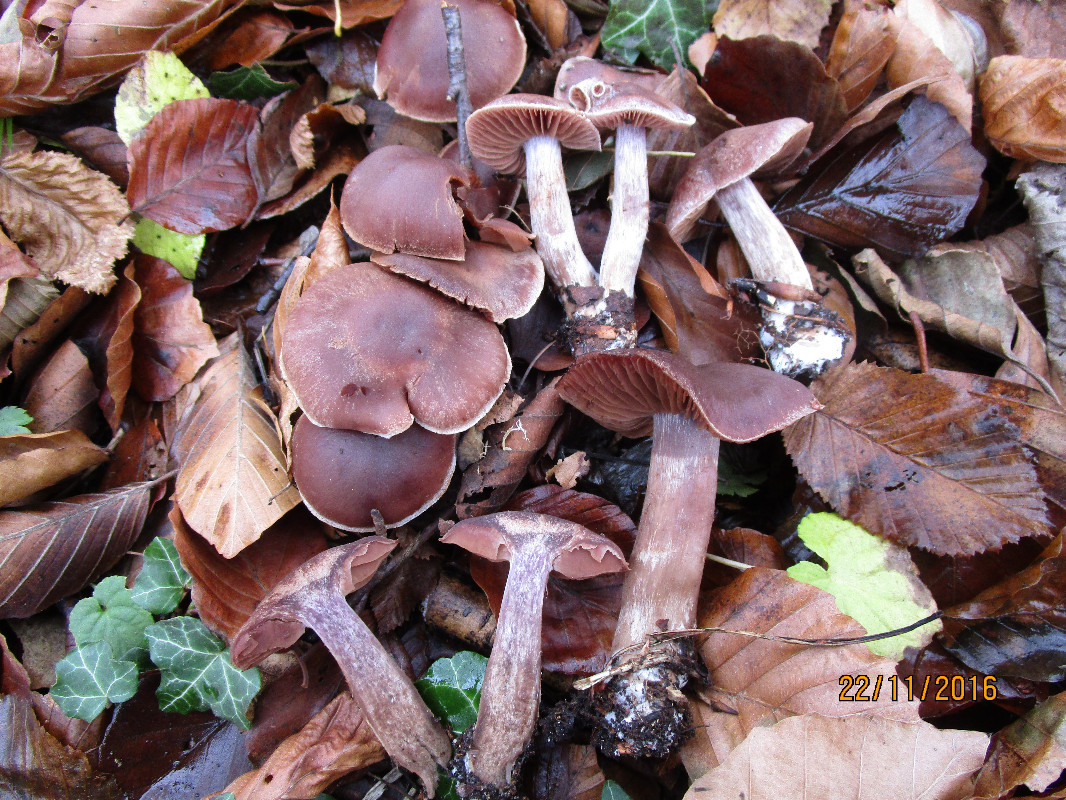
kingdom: Fungi
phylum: Basidiomycota
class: Agaricomycetes
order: Agaricales
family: Cortinariaceae
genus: Cortinarius
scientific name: Cortinarius ainsworthii
